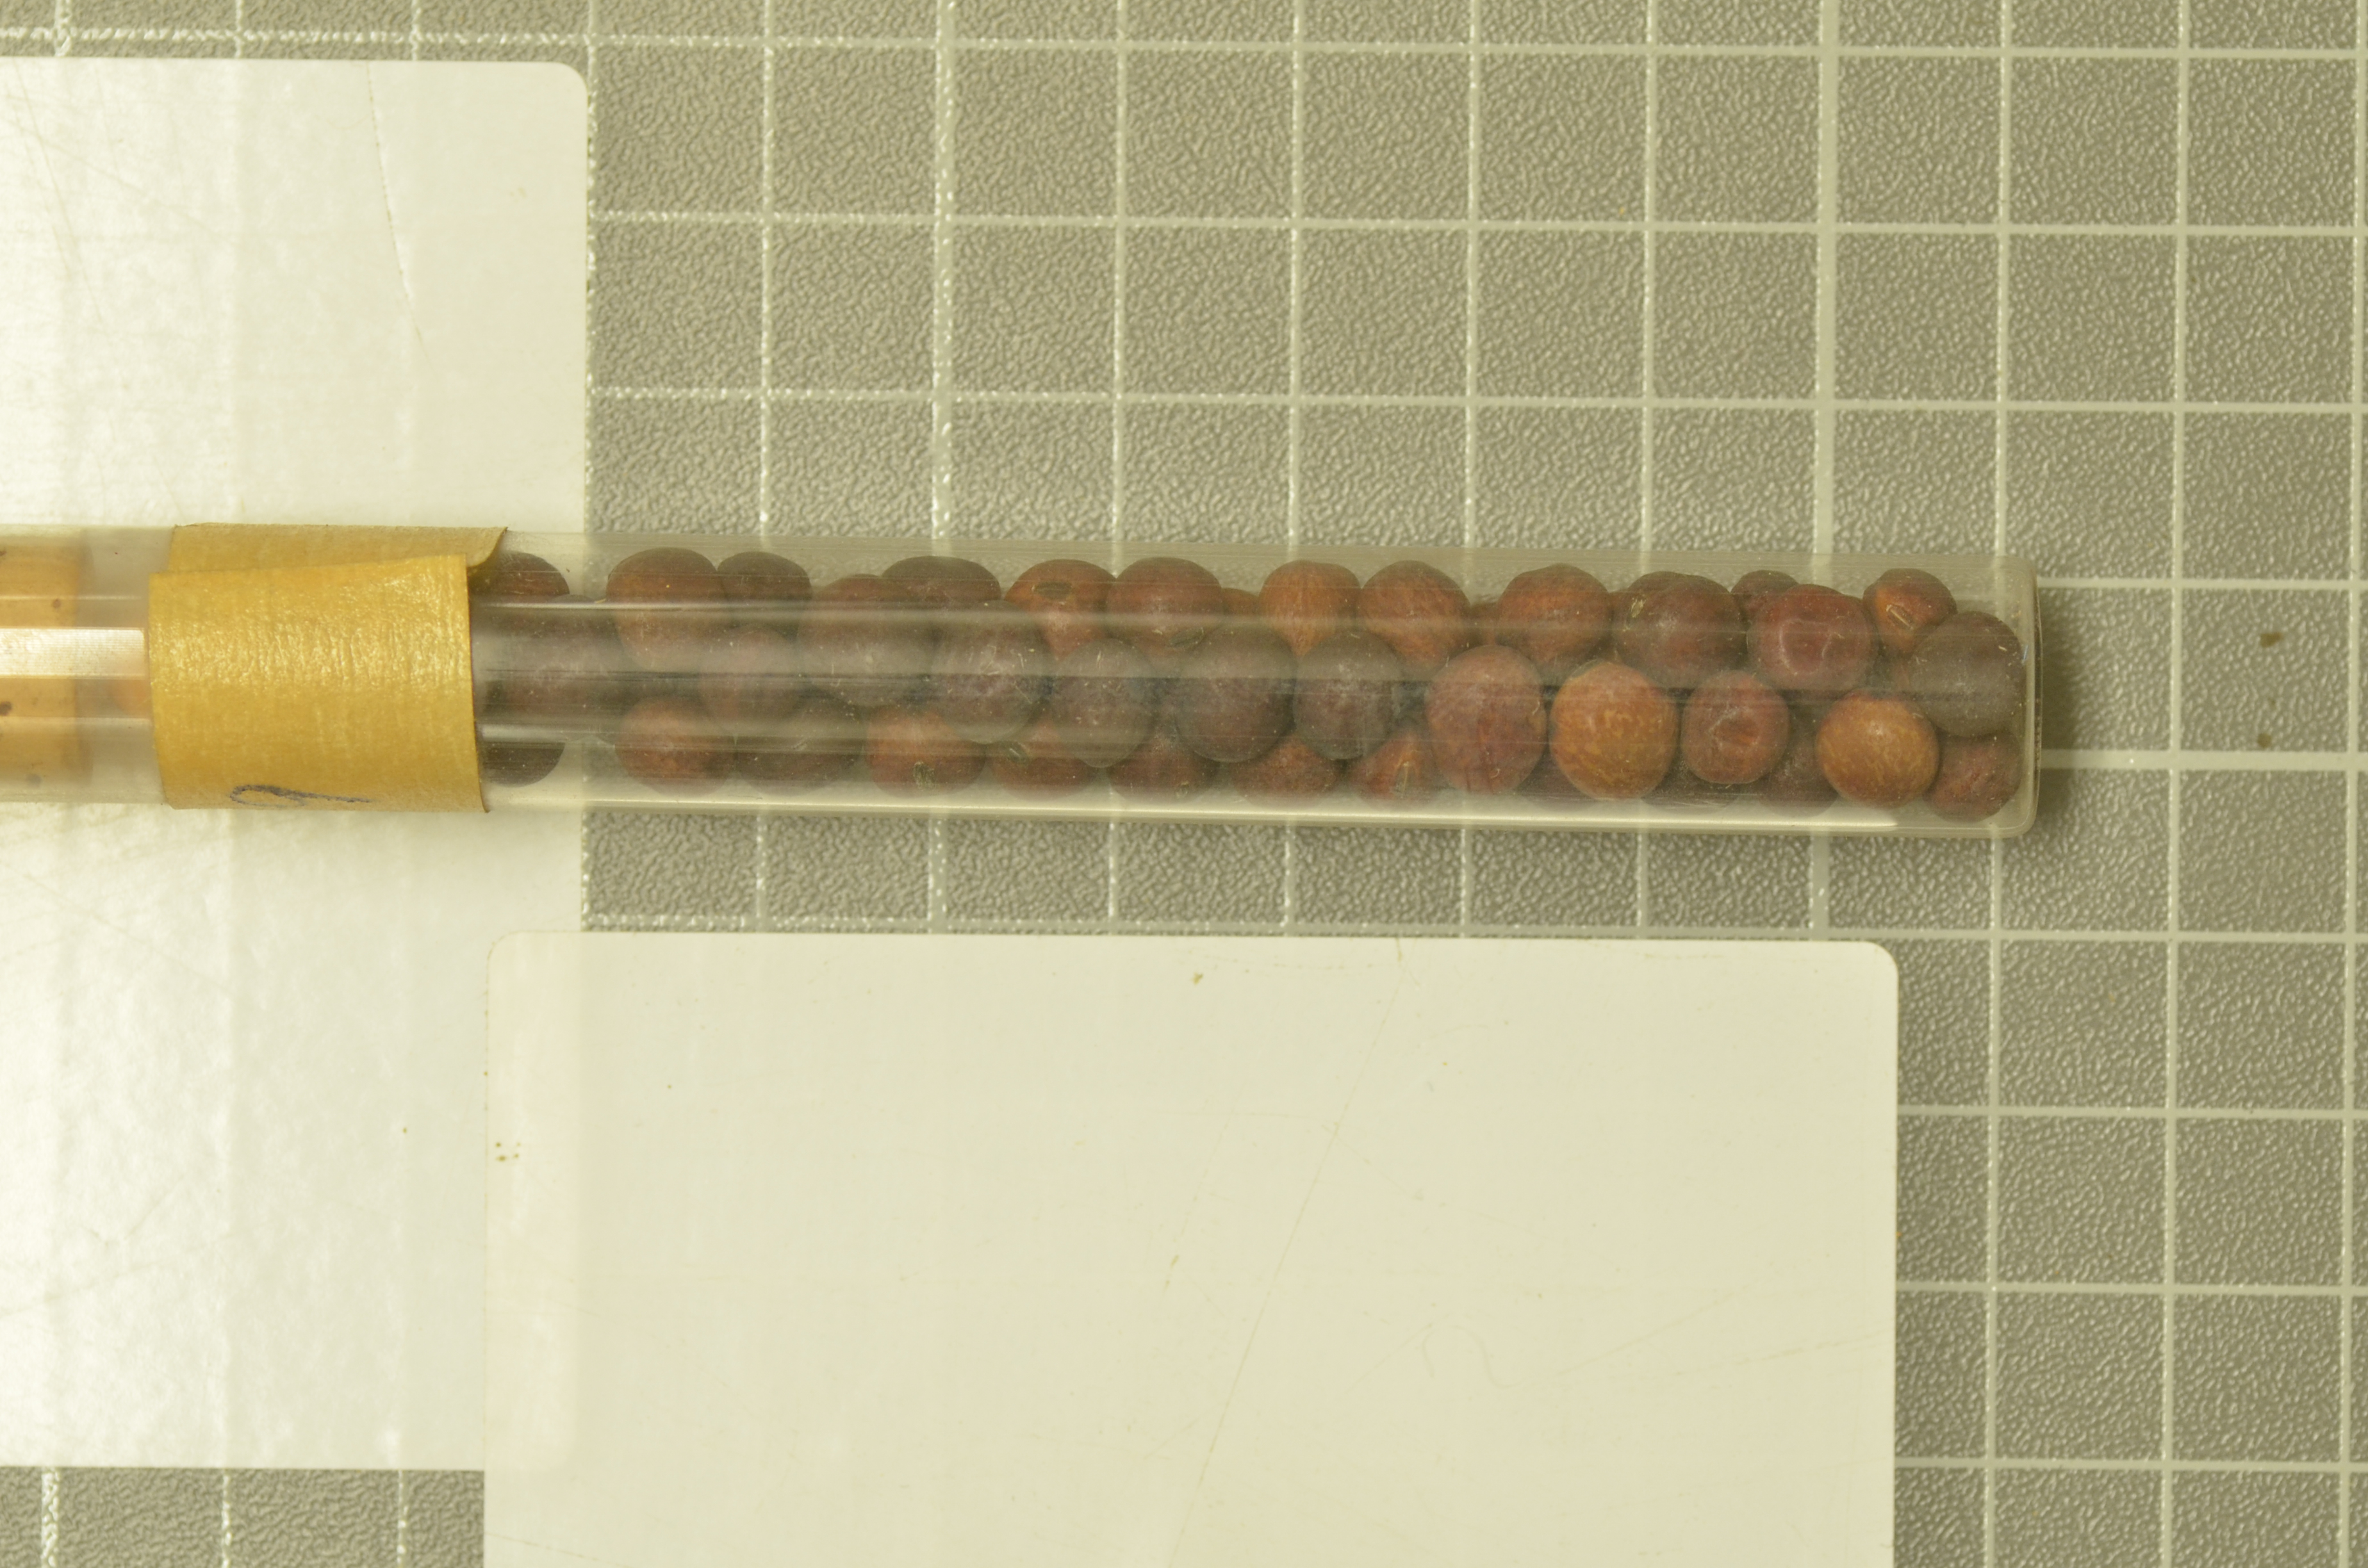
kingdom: Plantae
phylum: Tracheophyta
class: Magnoliopsida
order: Fabales
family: Fabaceae
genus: Lathyrus
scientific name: Lathyrus oleraceus
